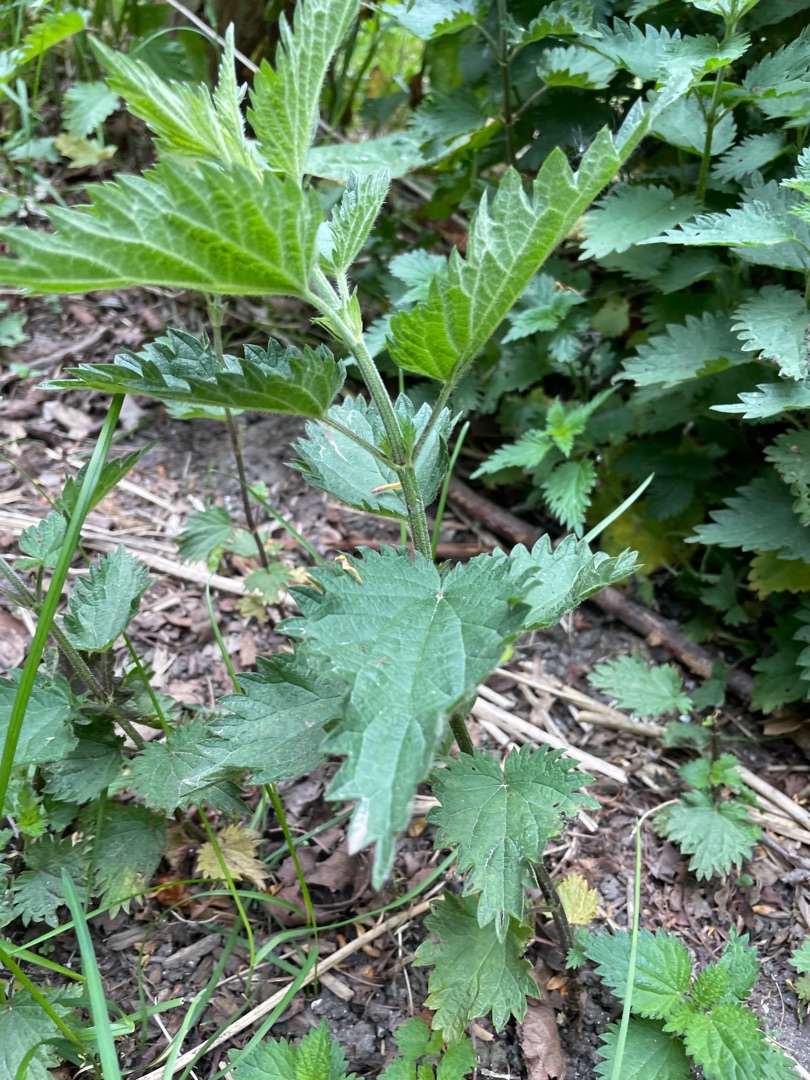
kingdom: Plantae
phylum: Tracheophyta
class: Magnoliopsida
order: Rosales
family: Urticaceae
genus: Urtica
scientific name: Urtica dioica
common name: Stor nælde
